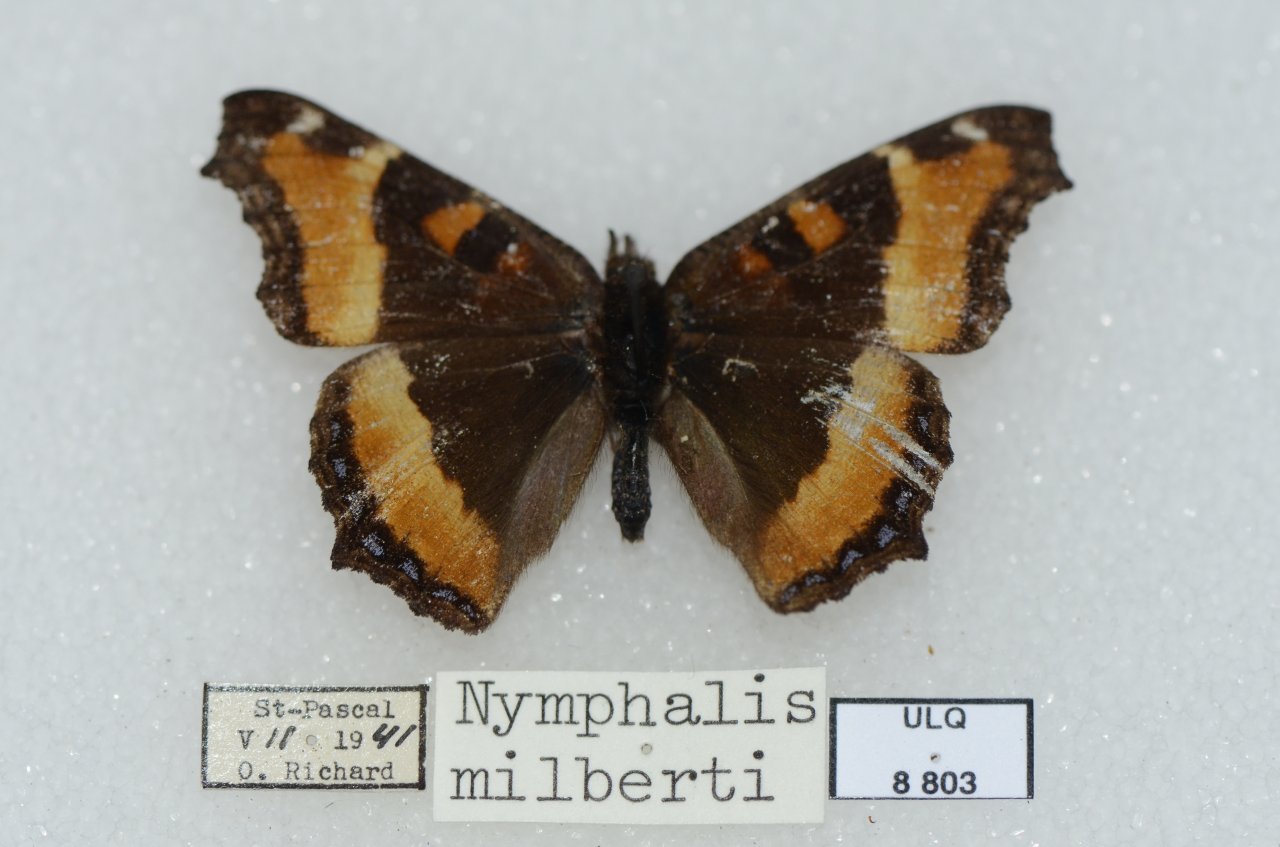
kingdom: Animalia
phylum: Arthropoda
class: Insecta
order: Lepidoptera
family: Nymphalidae
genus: Aglais
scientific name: Aglais milberti
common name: Milbert's Tortoiseshell
